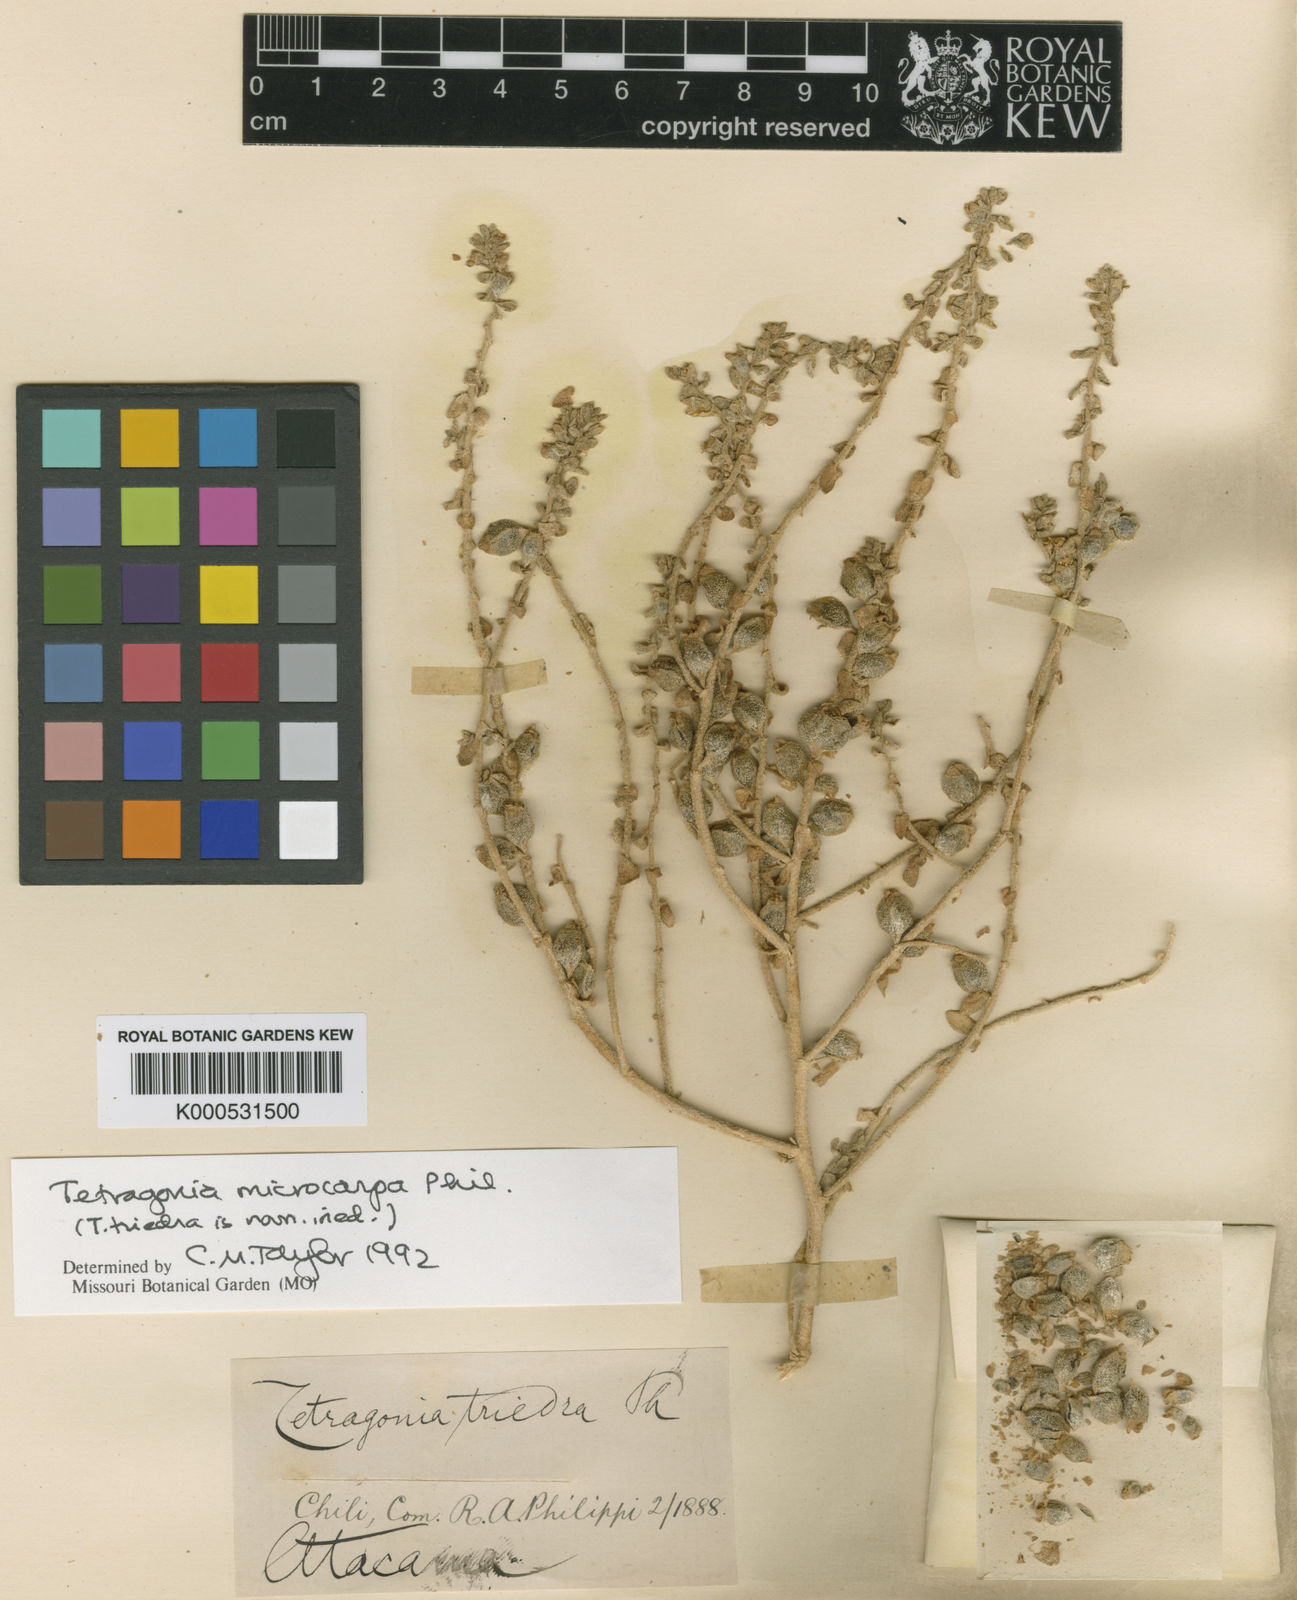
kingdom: Plantae
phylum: Tracheophyta
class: Magnoliopsida
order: Caryophyllales
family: Aizoaceae
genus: Tetragonia
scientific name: Tetragonia microcarpa
